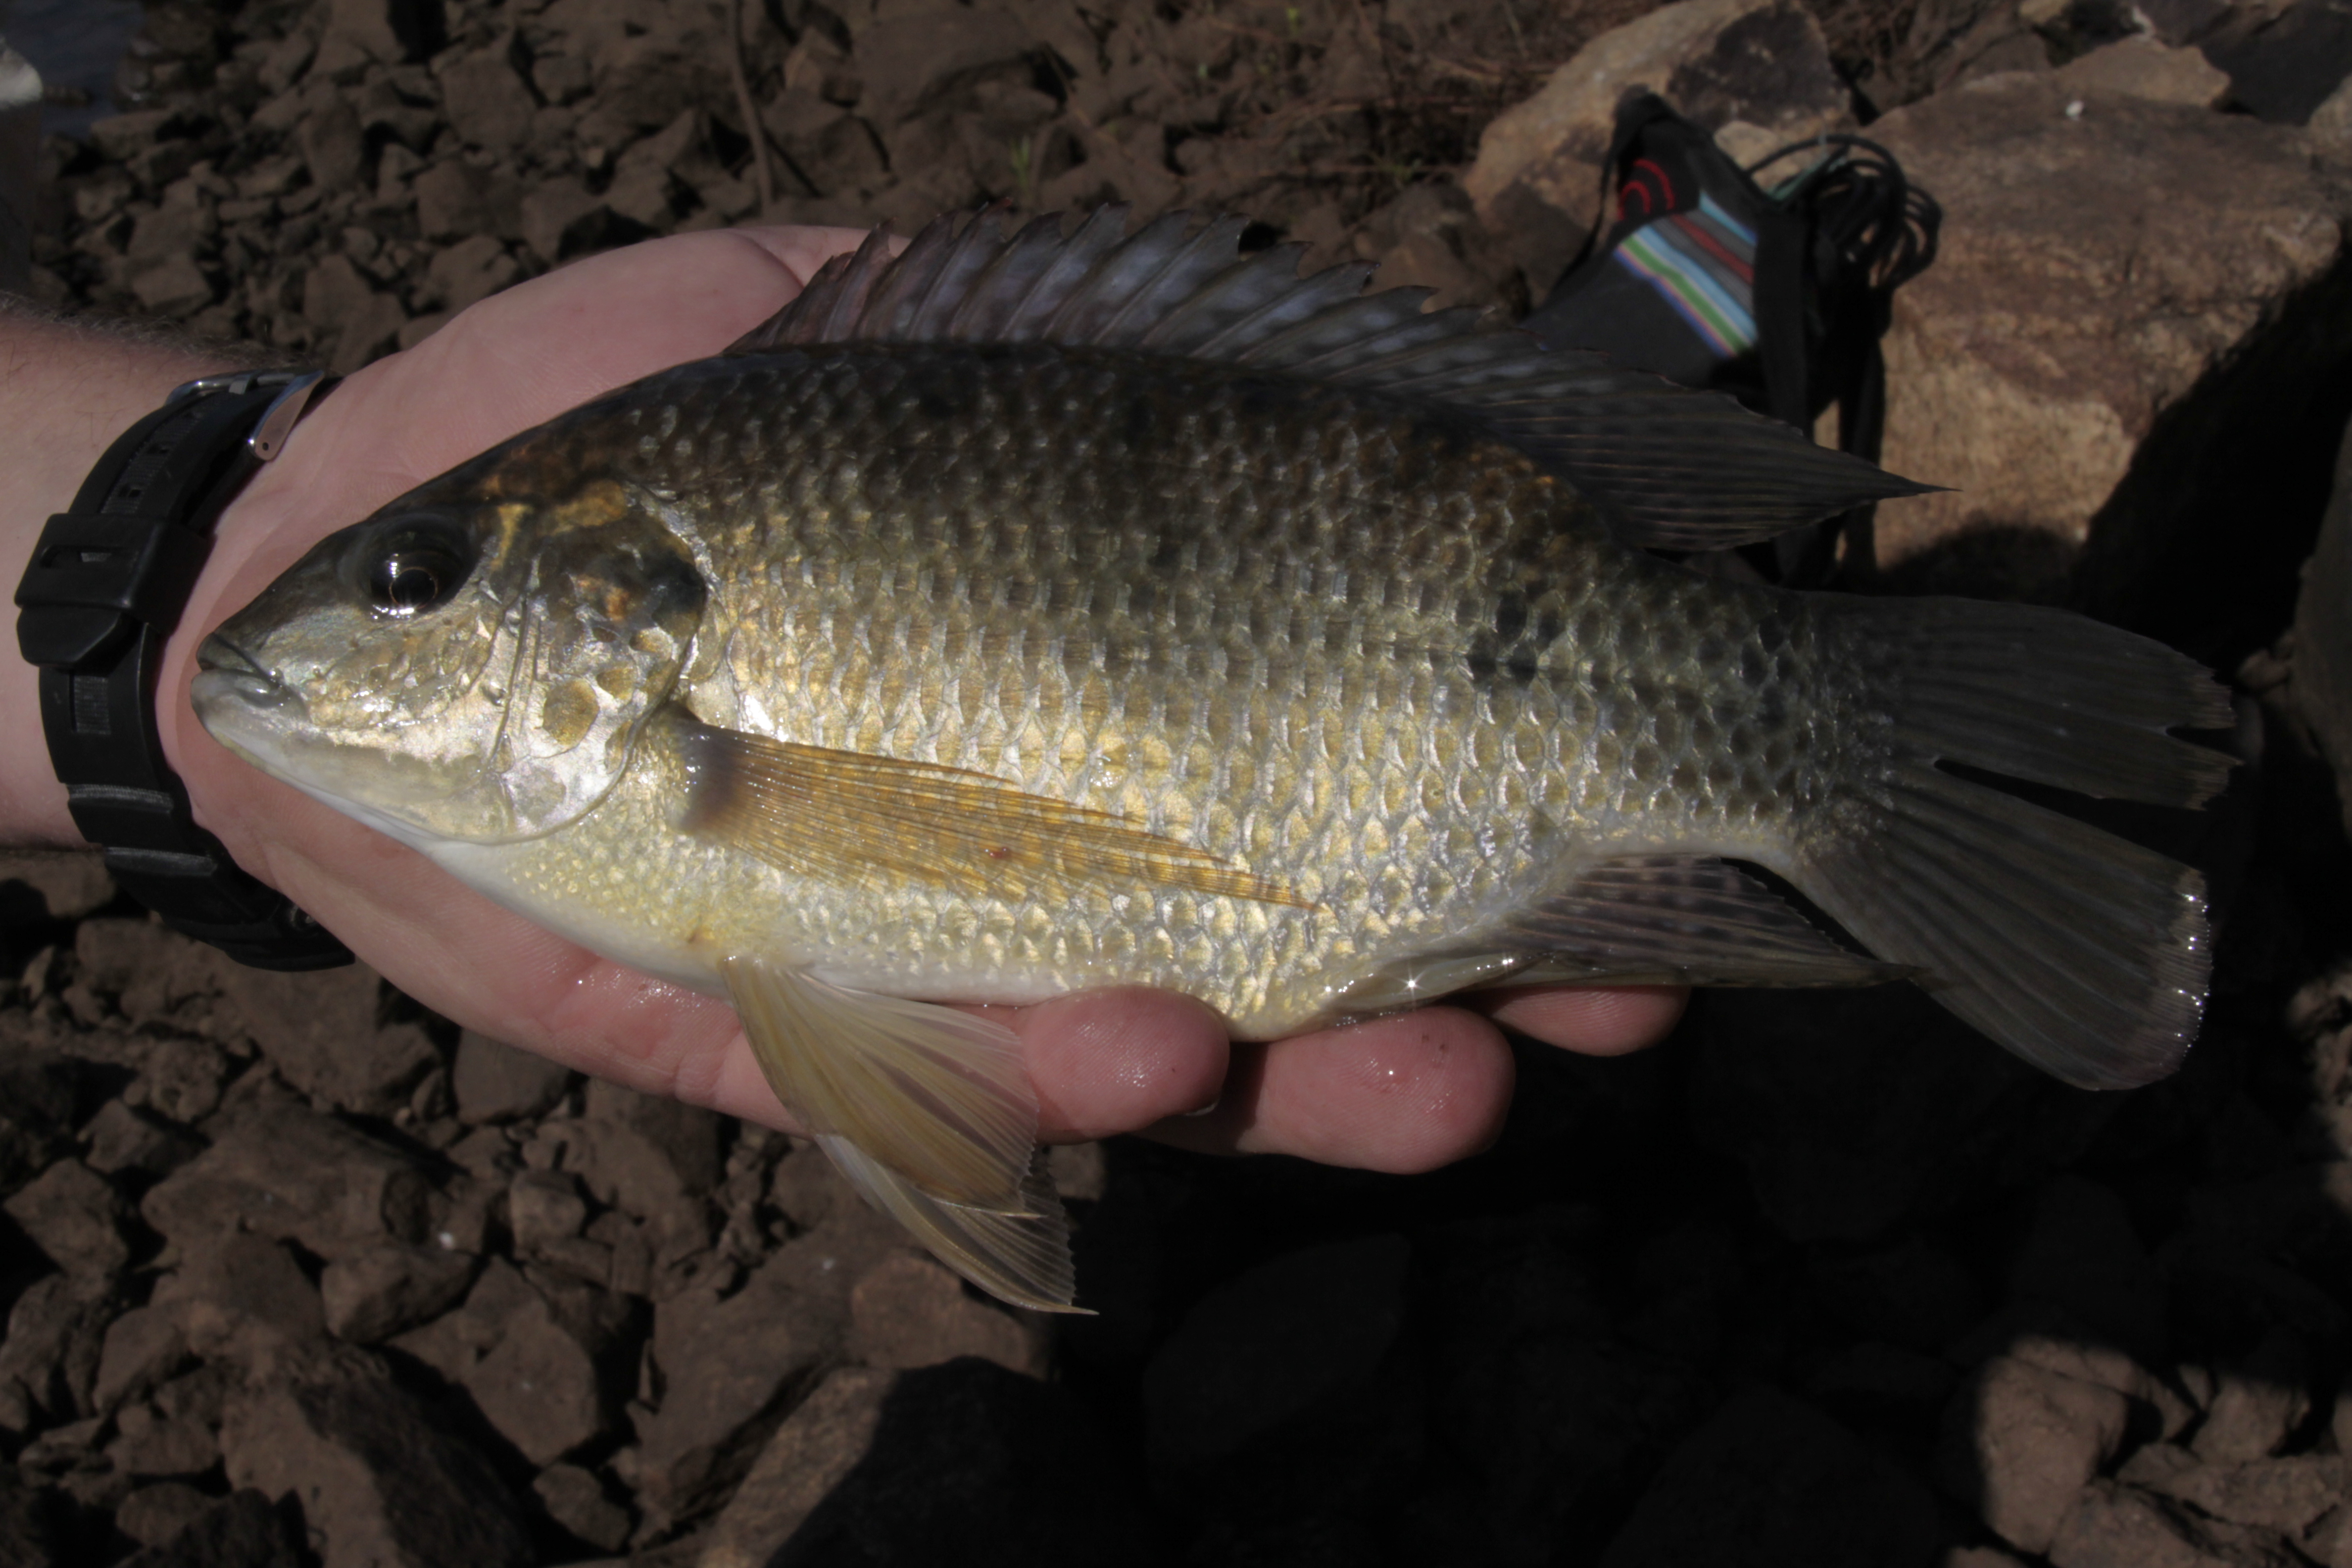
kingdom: Animalia
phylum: Chordata
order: Perciformes
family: Eleotridae
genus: Hypseleotris
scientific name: Hypseleotris cyprinoides
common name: Golden carp-gudgeon
